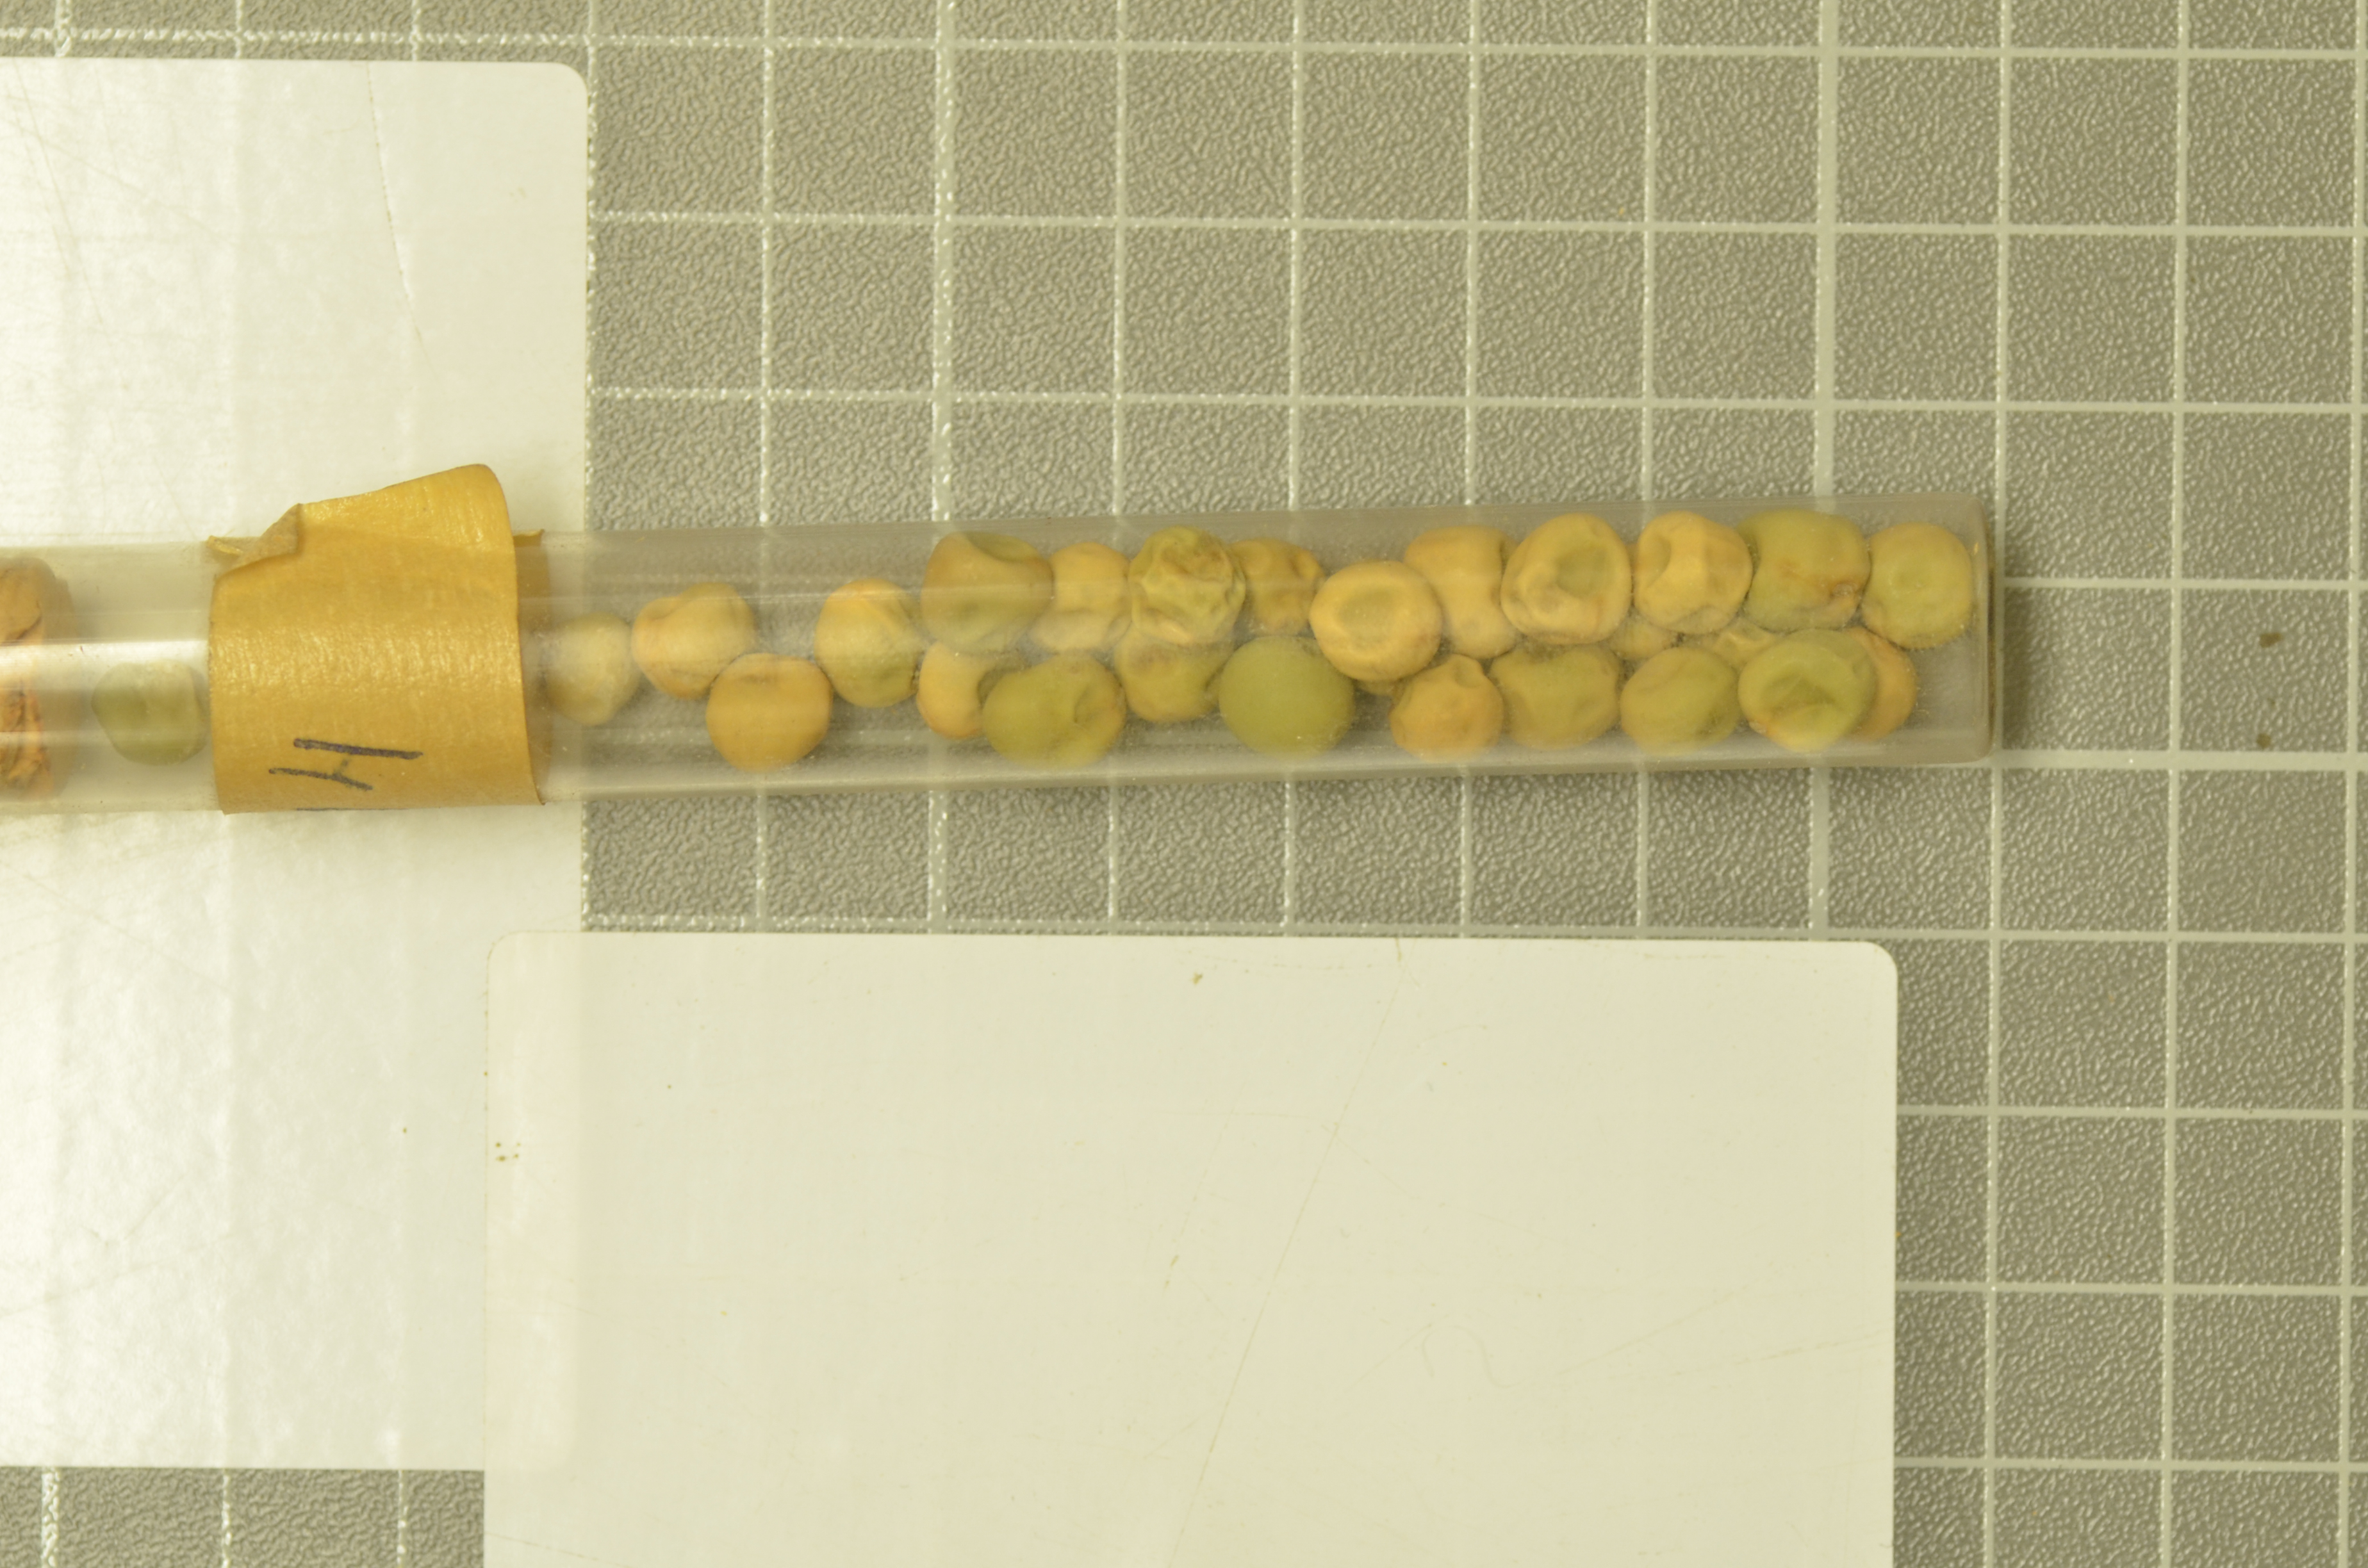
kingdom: Plantae
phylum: Tracheophyta
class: Magnoliopsida
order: Fabales
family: Fabaceae
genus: Lathyrus
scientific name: Lathyrus oleraceus
